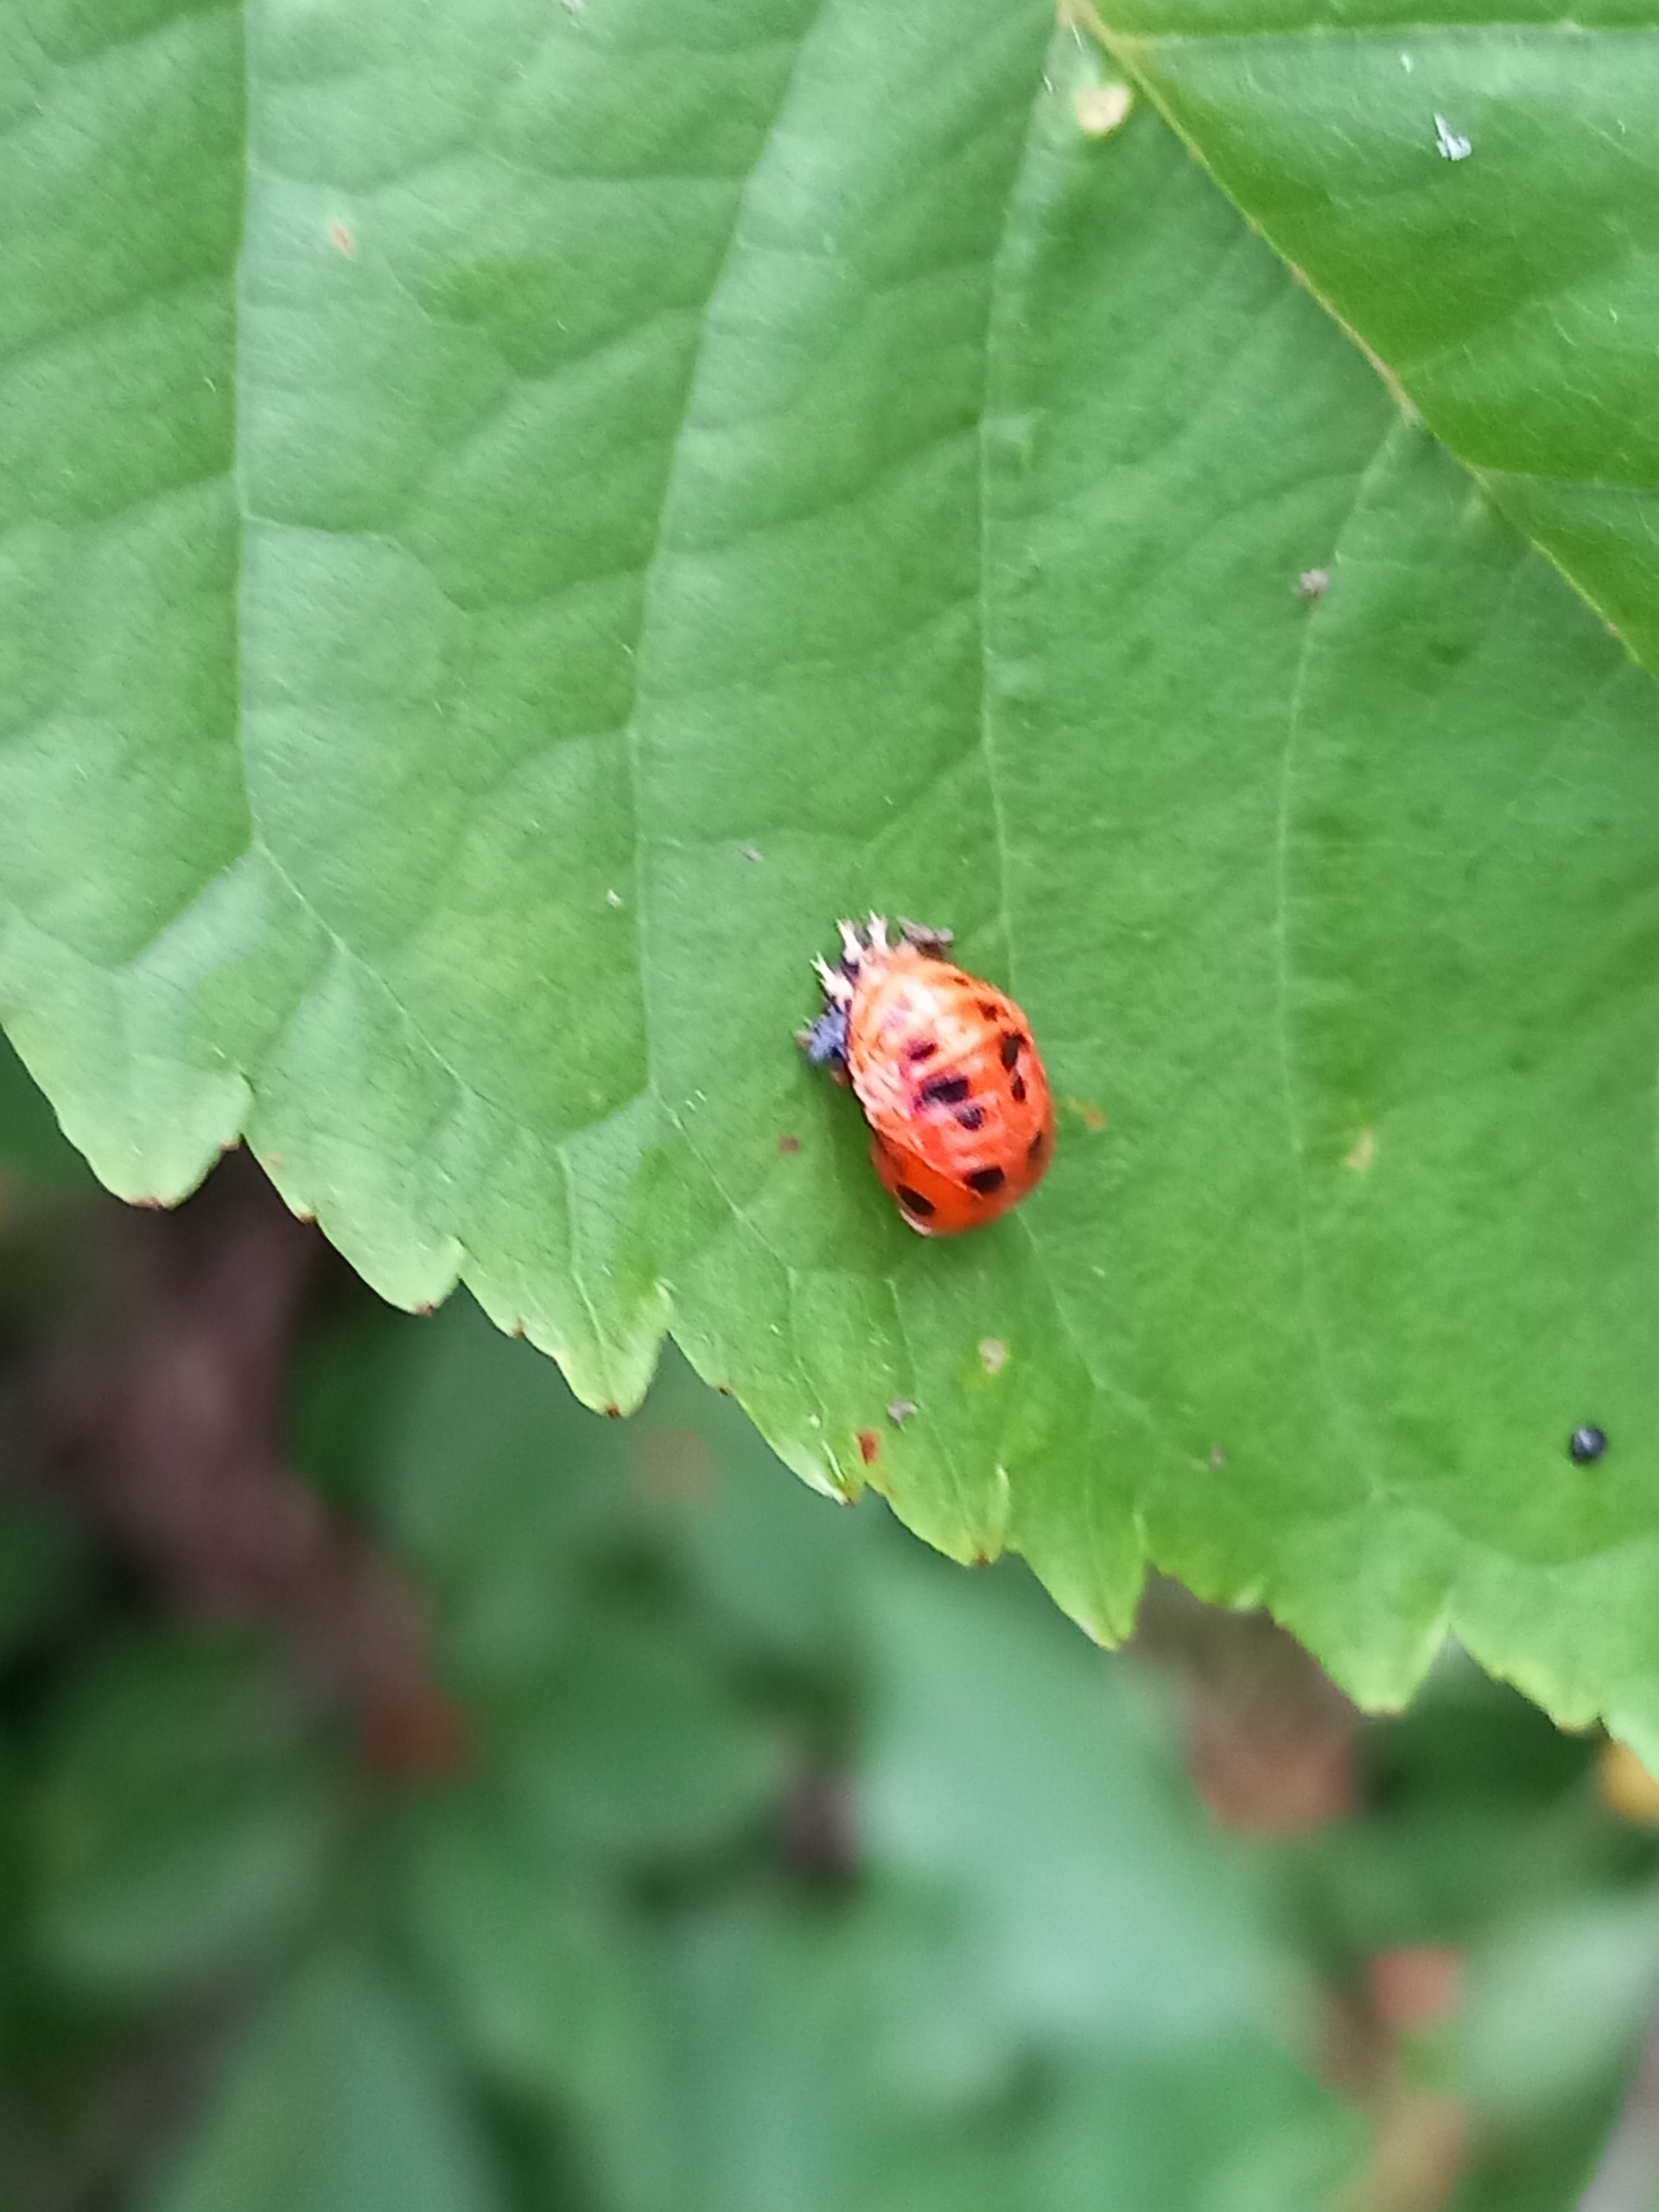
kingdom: Animalia
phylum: Arthropoda
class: Insecta
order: Coleoptera
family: Coccinellidae
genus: Harmonia
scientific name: Harmonia axyridis
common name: Harlekinmariehøne
